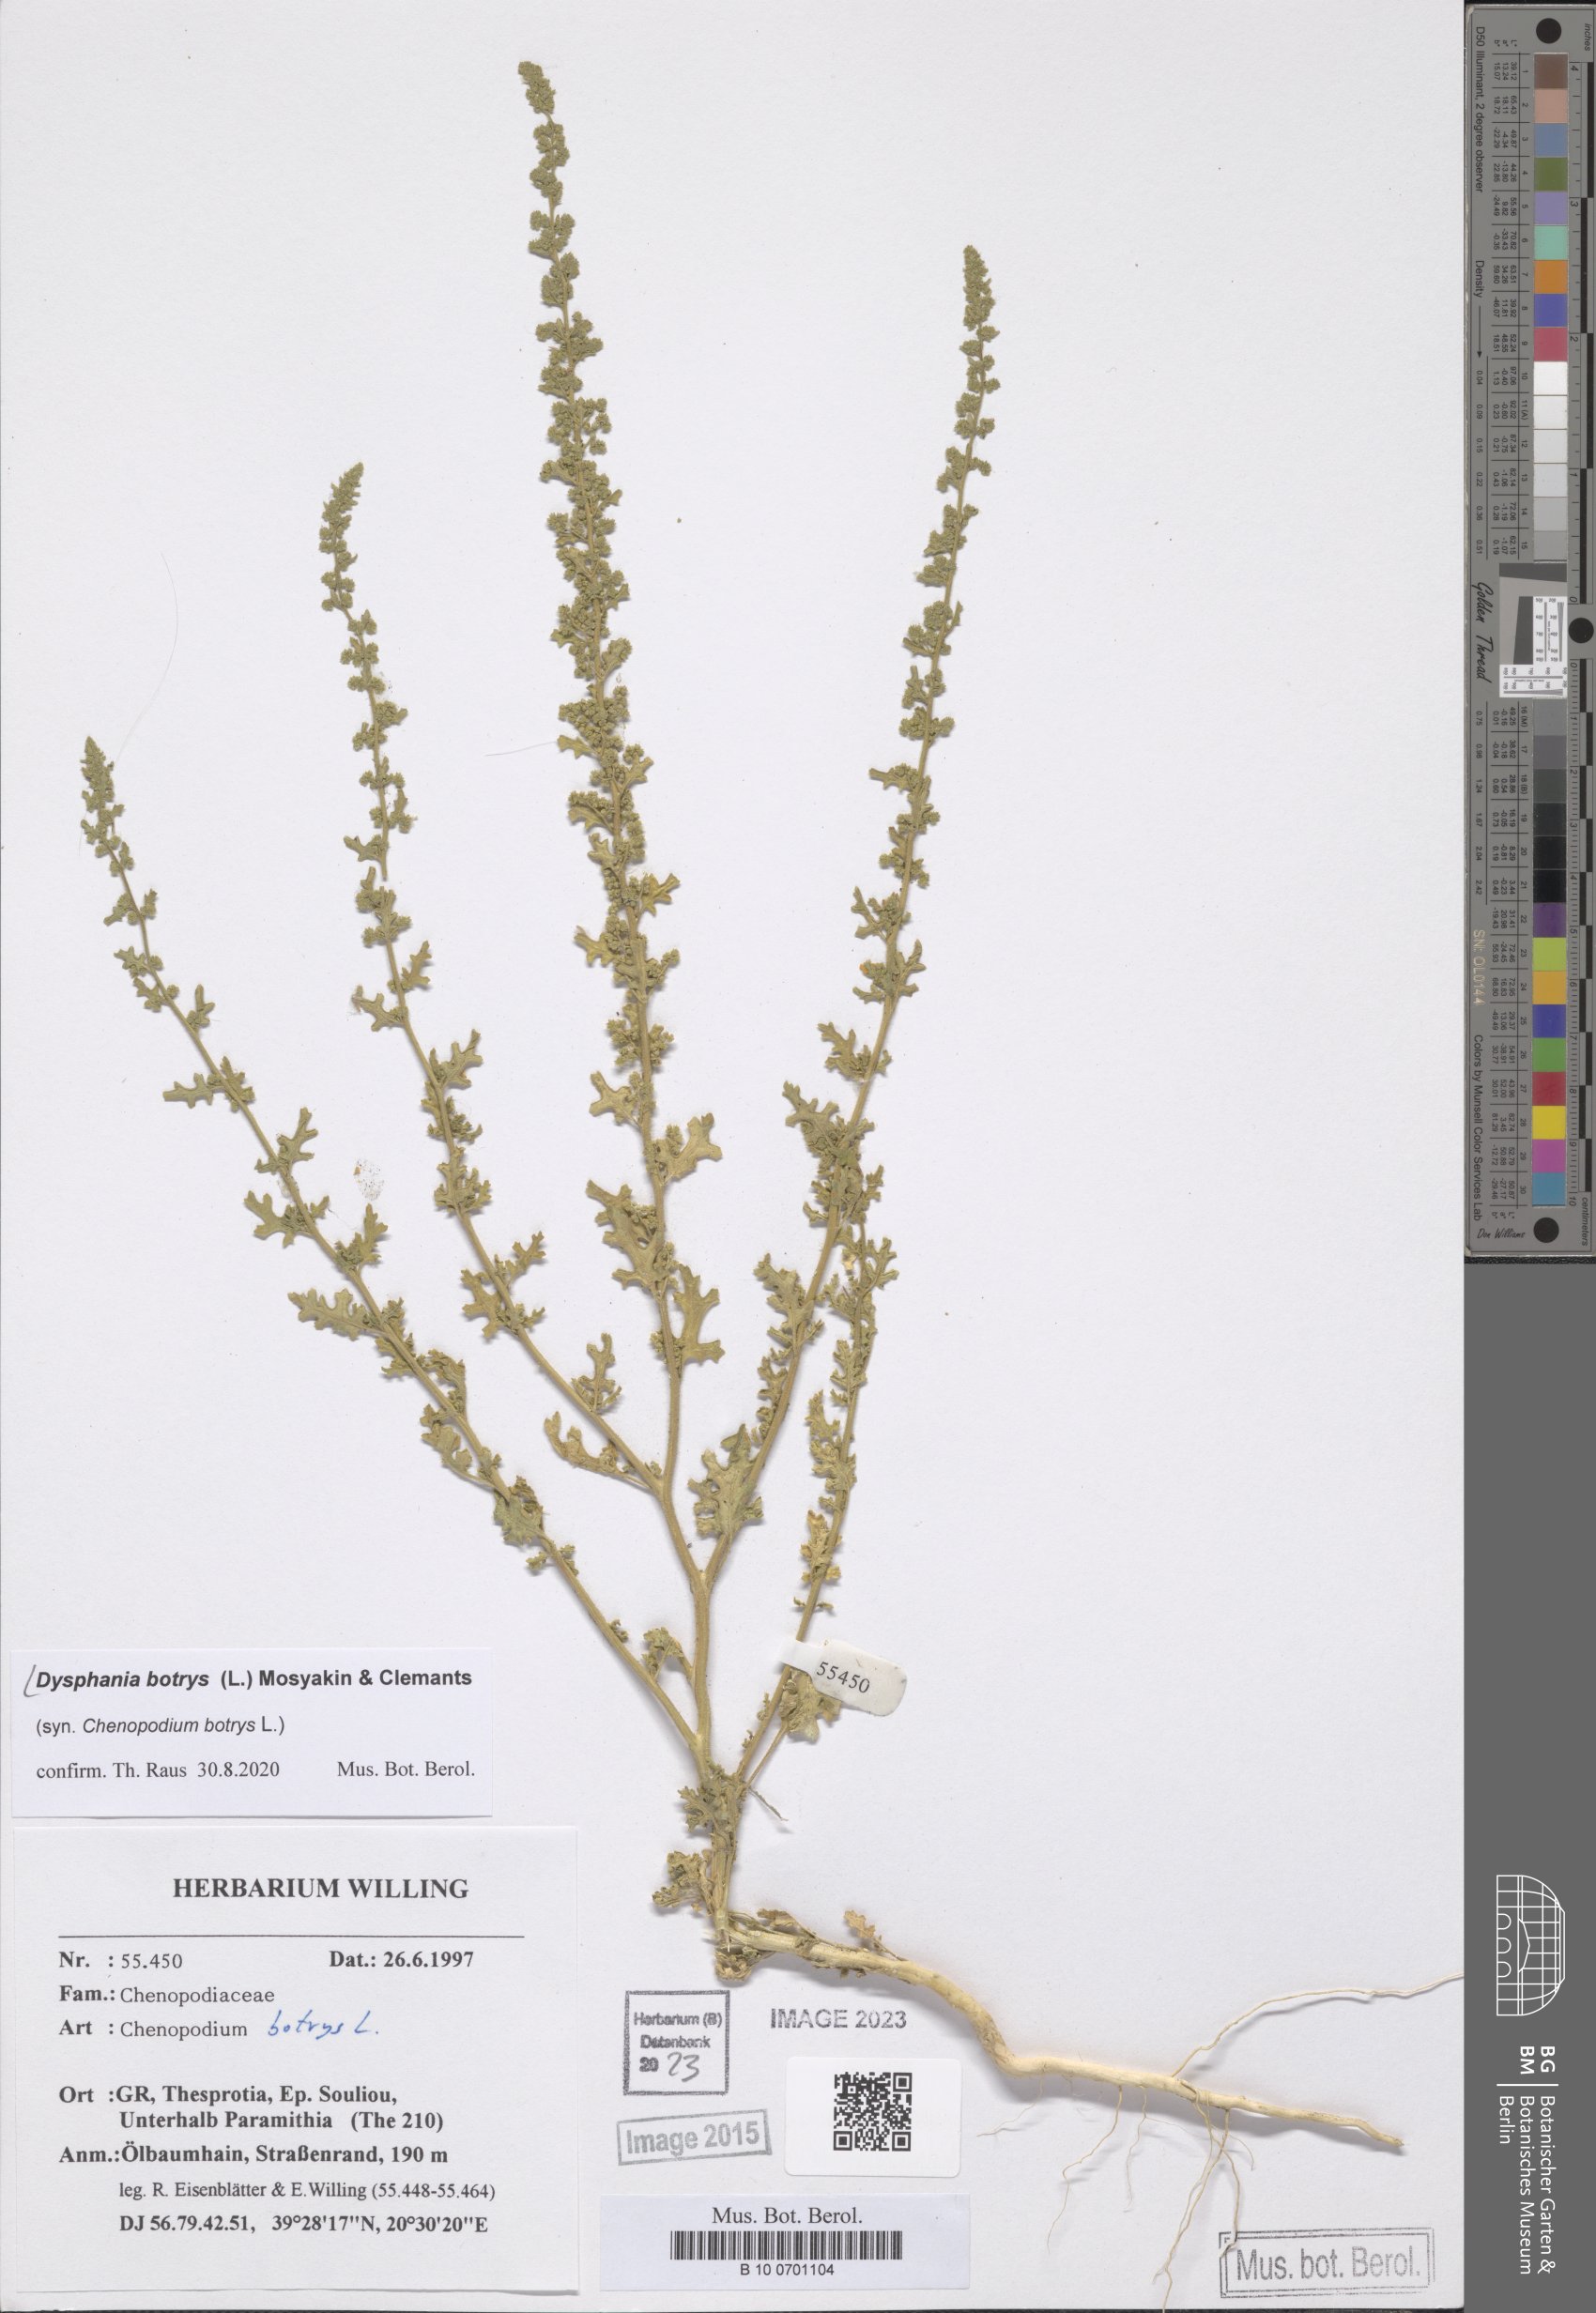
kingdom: Plantae
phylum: Tracheophyta
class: Magnoliopsida
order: Caryophyllales
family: Amaranthaceae
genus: Dysphania
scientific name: Dysphania botrys
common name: Feather-geranium
